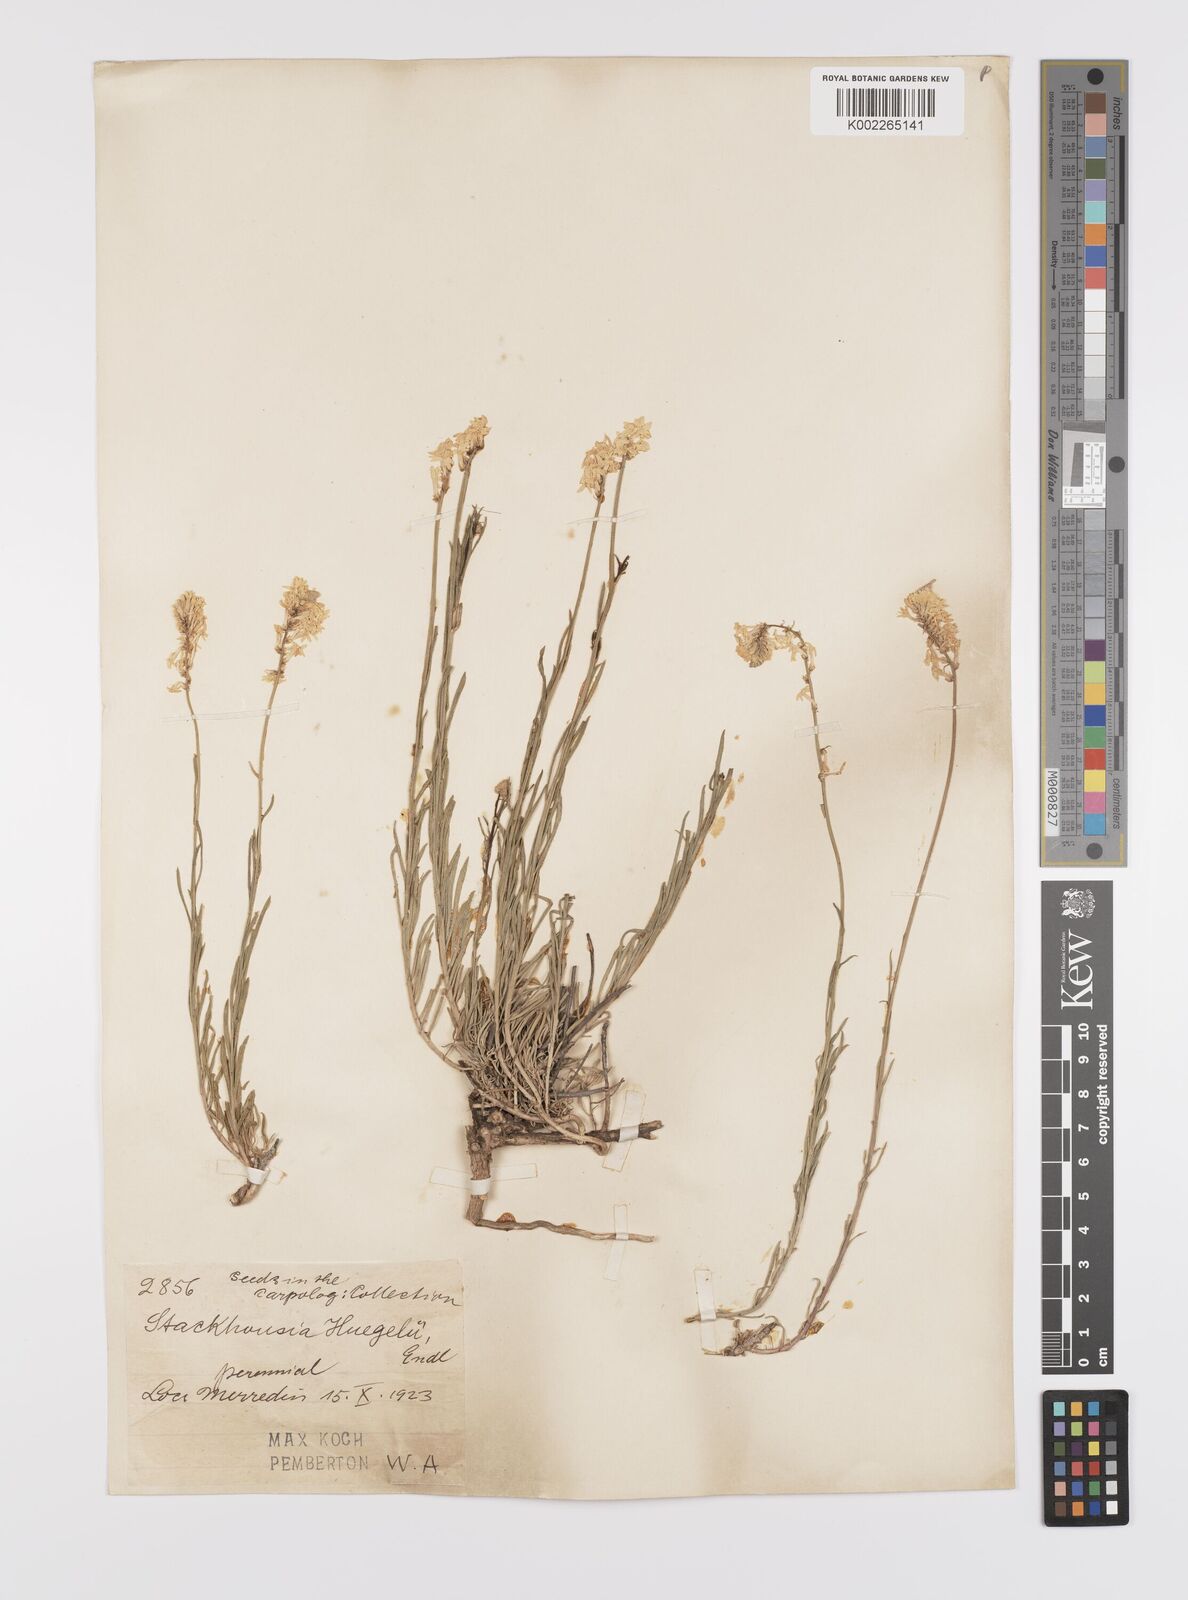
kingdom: Plantae
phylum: Tracheophyta
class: Magnoliopsida
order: Celastrales
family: Celastraceae
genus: Stackhousia
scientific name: Stackhousia monogyna
